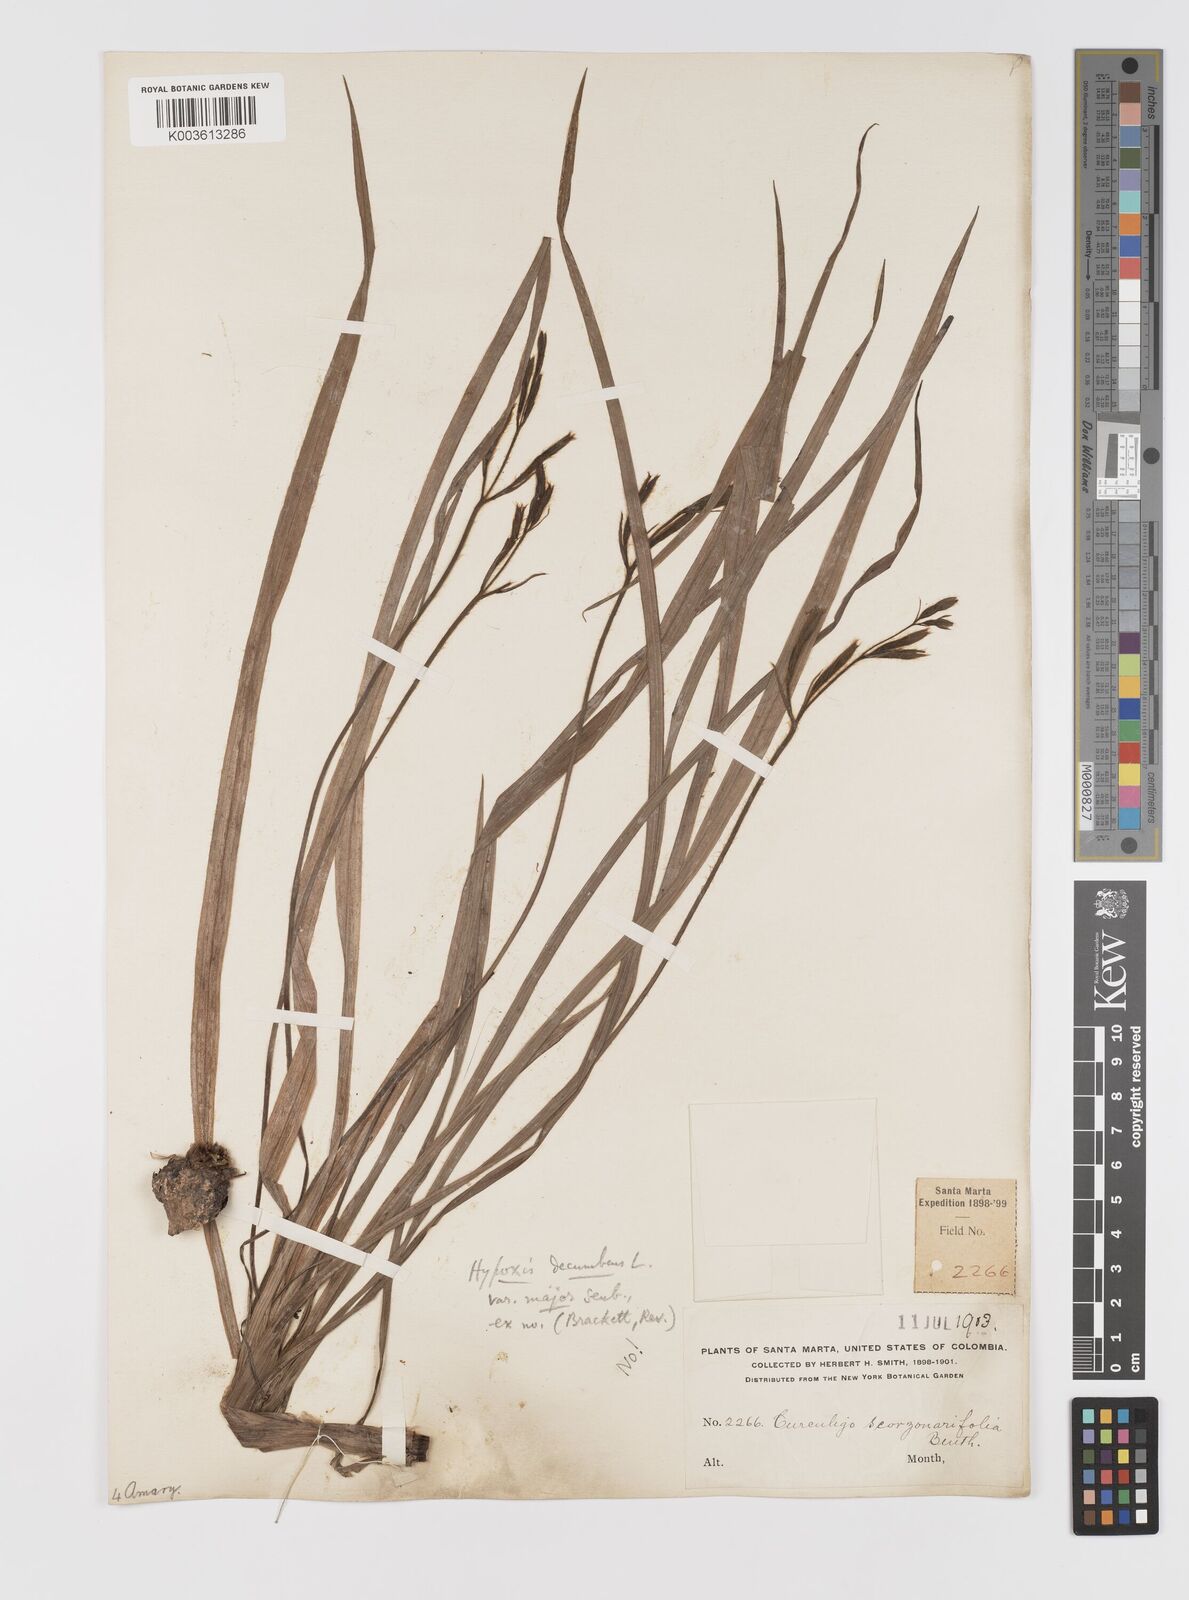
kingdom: Plantae
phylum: Tracheophyta
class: Liliopsida
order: Asparagales
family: Hypoxidaceae
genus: Hypoxis
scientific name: Hypoxis decumbens
